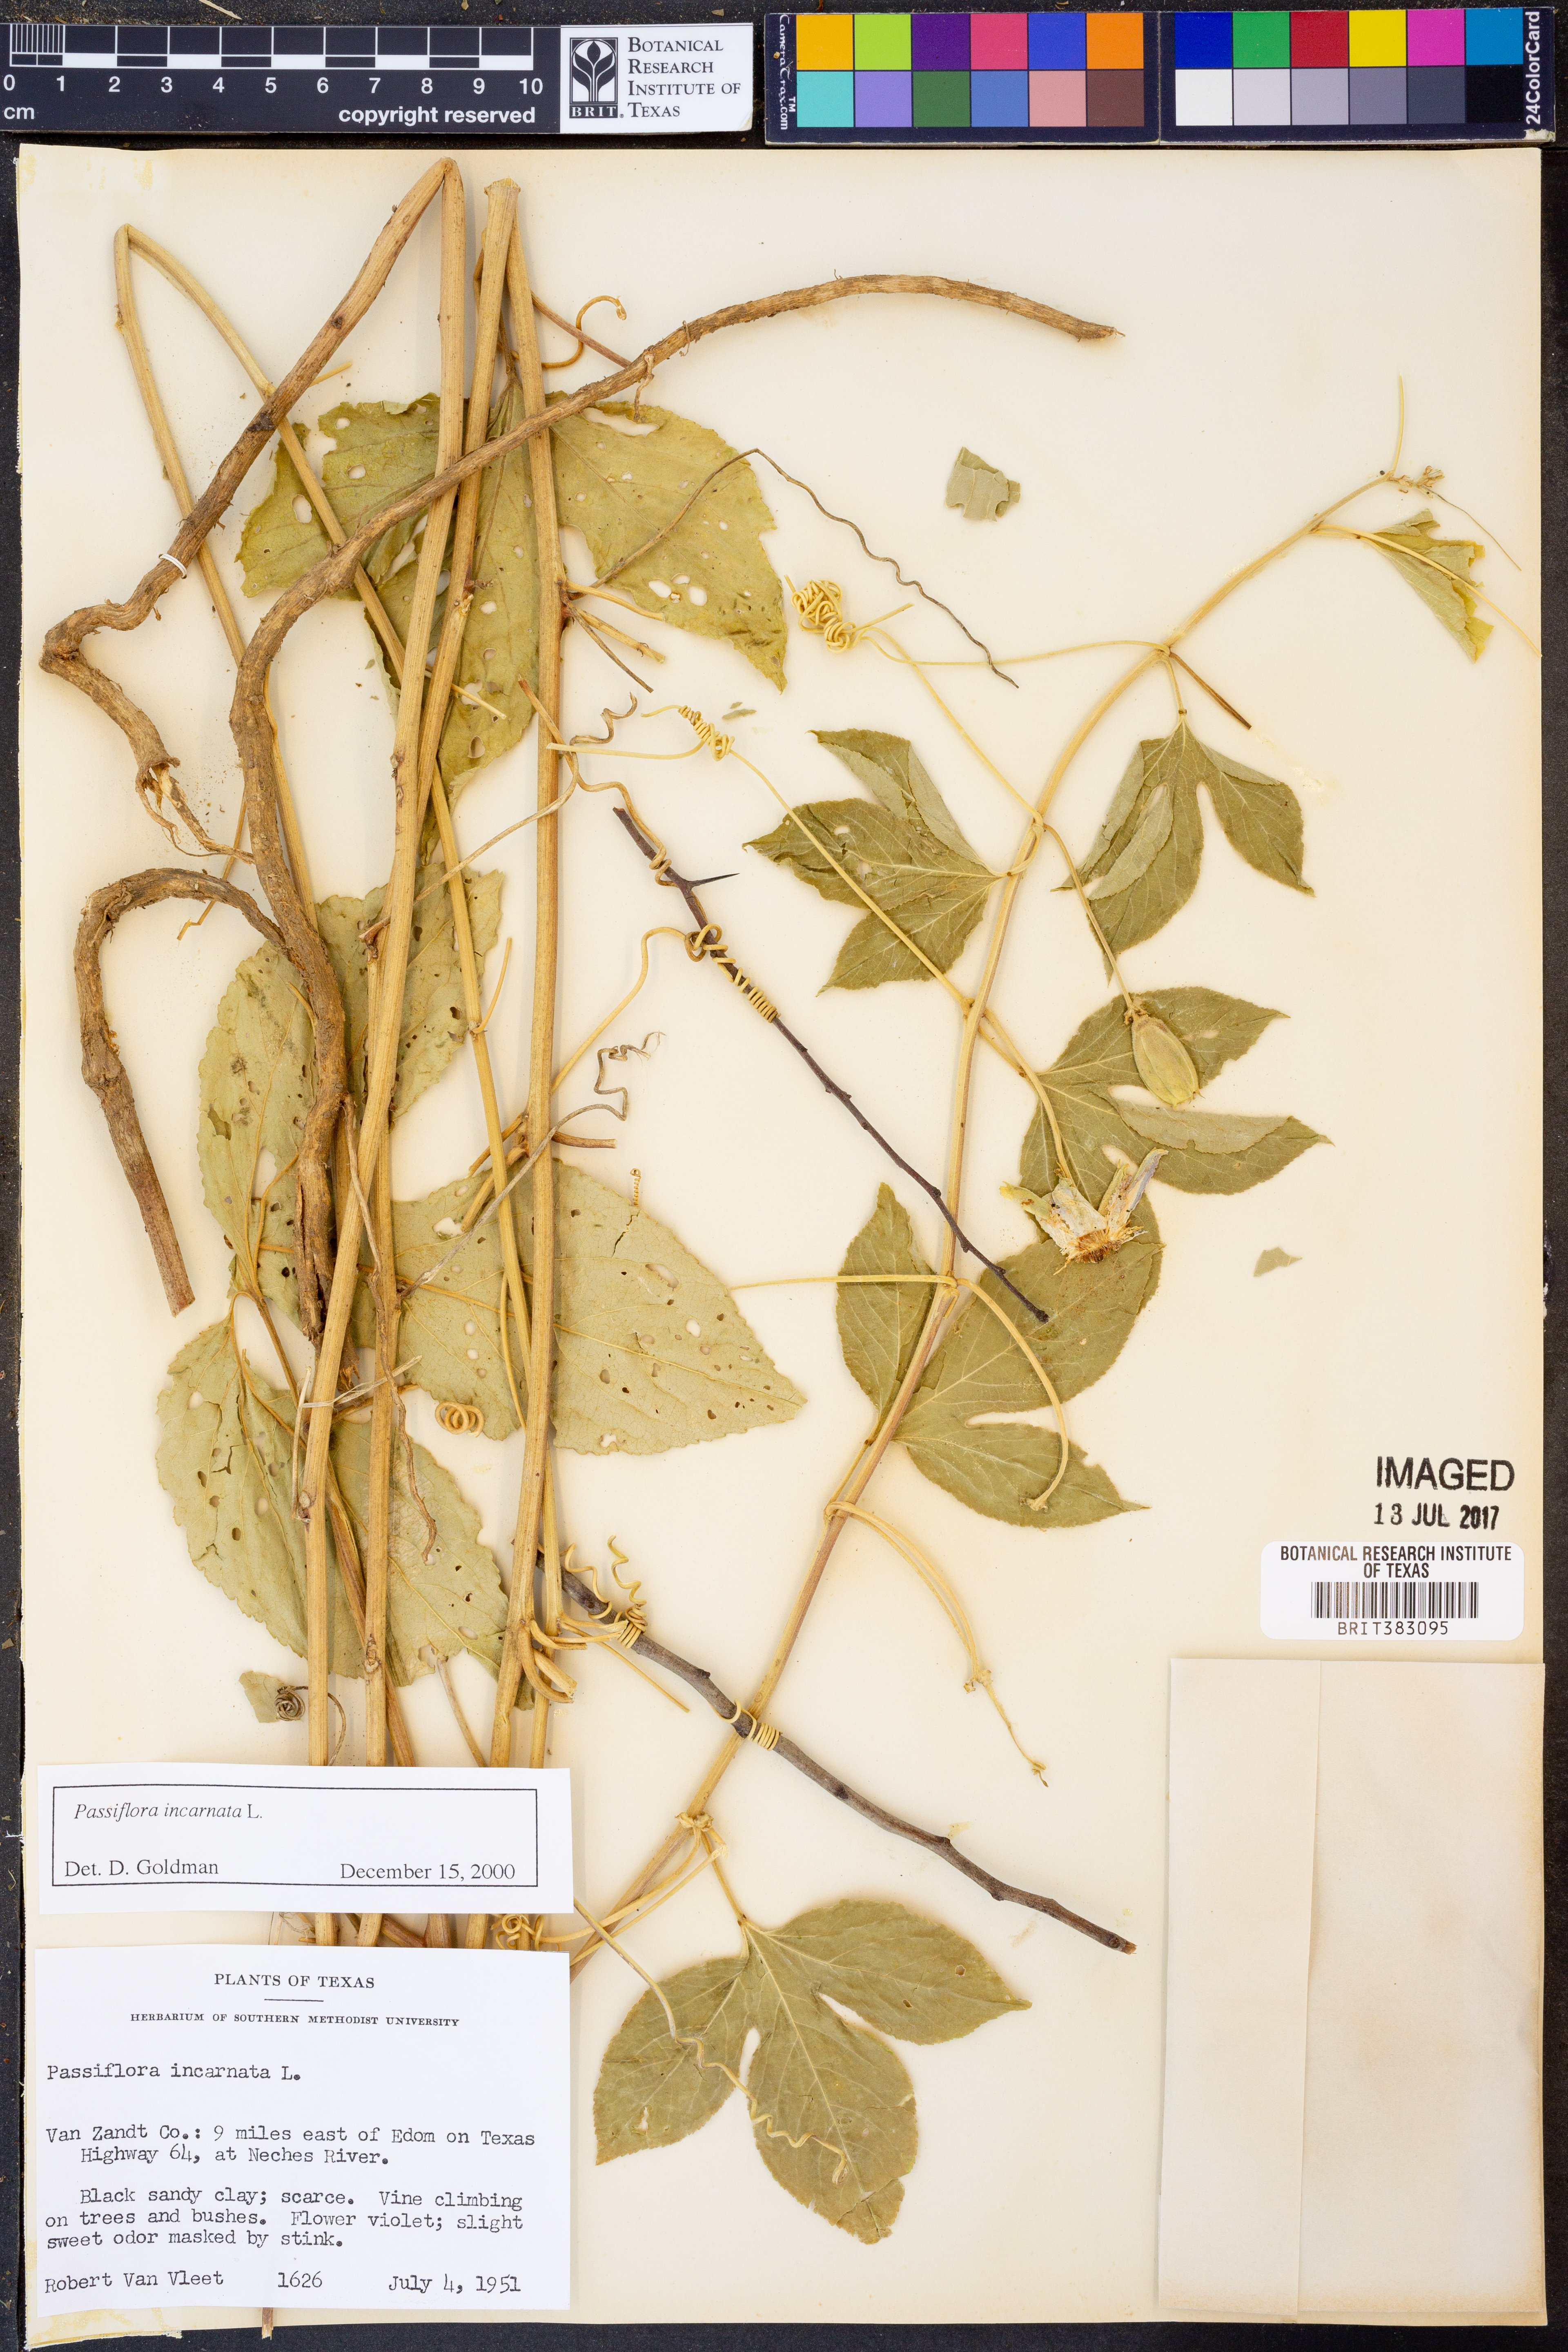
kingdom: Plantae
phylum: Tracheophyta
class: Magnoliopsida
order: Malpighiales
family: Passifloraceae
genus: Passiflora
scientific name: Passiflora incarnata
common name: Apricot-vine
